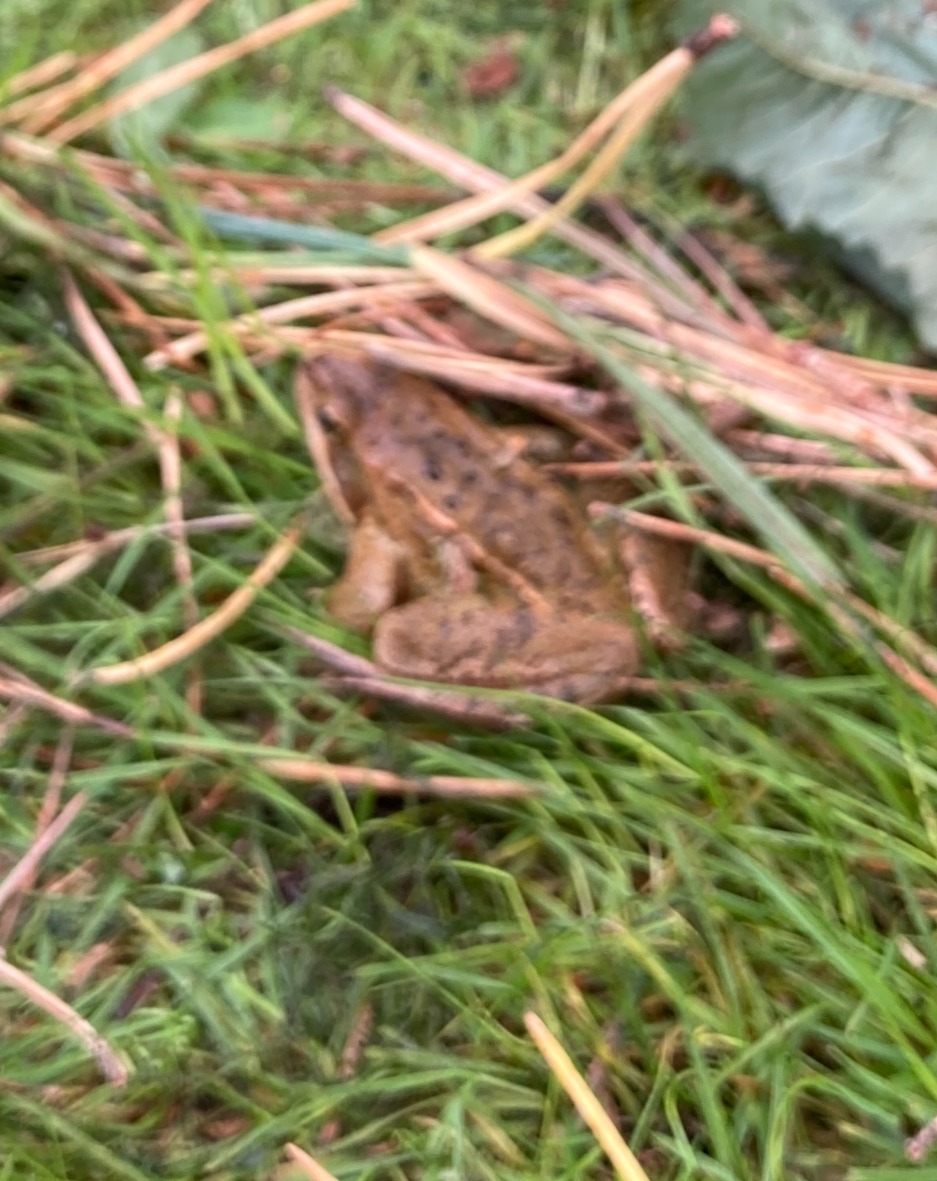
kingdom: Animalia
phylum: Chordata
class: Amphibia
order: Anura
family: Ranidae
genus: Rana
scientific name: Rana arvalis
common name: Spidssnudet frø
